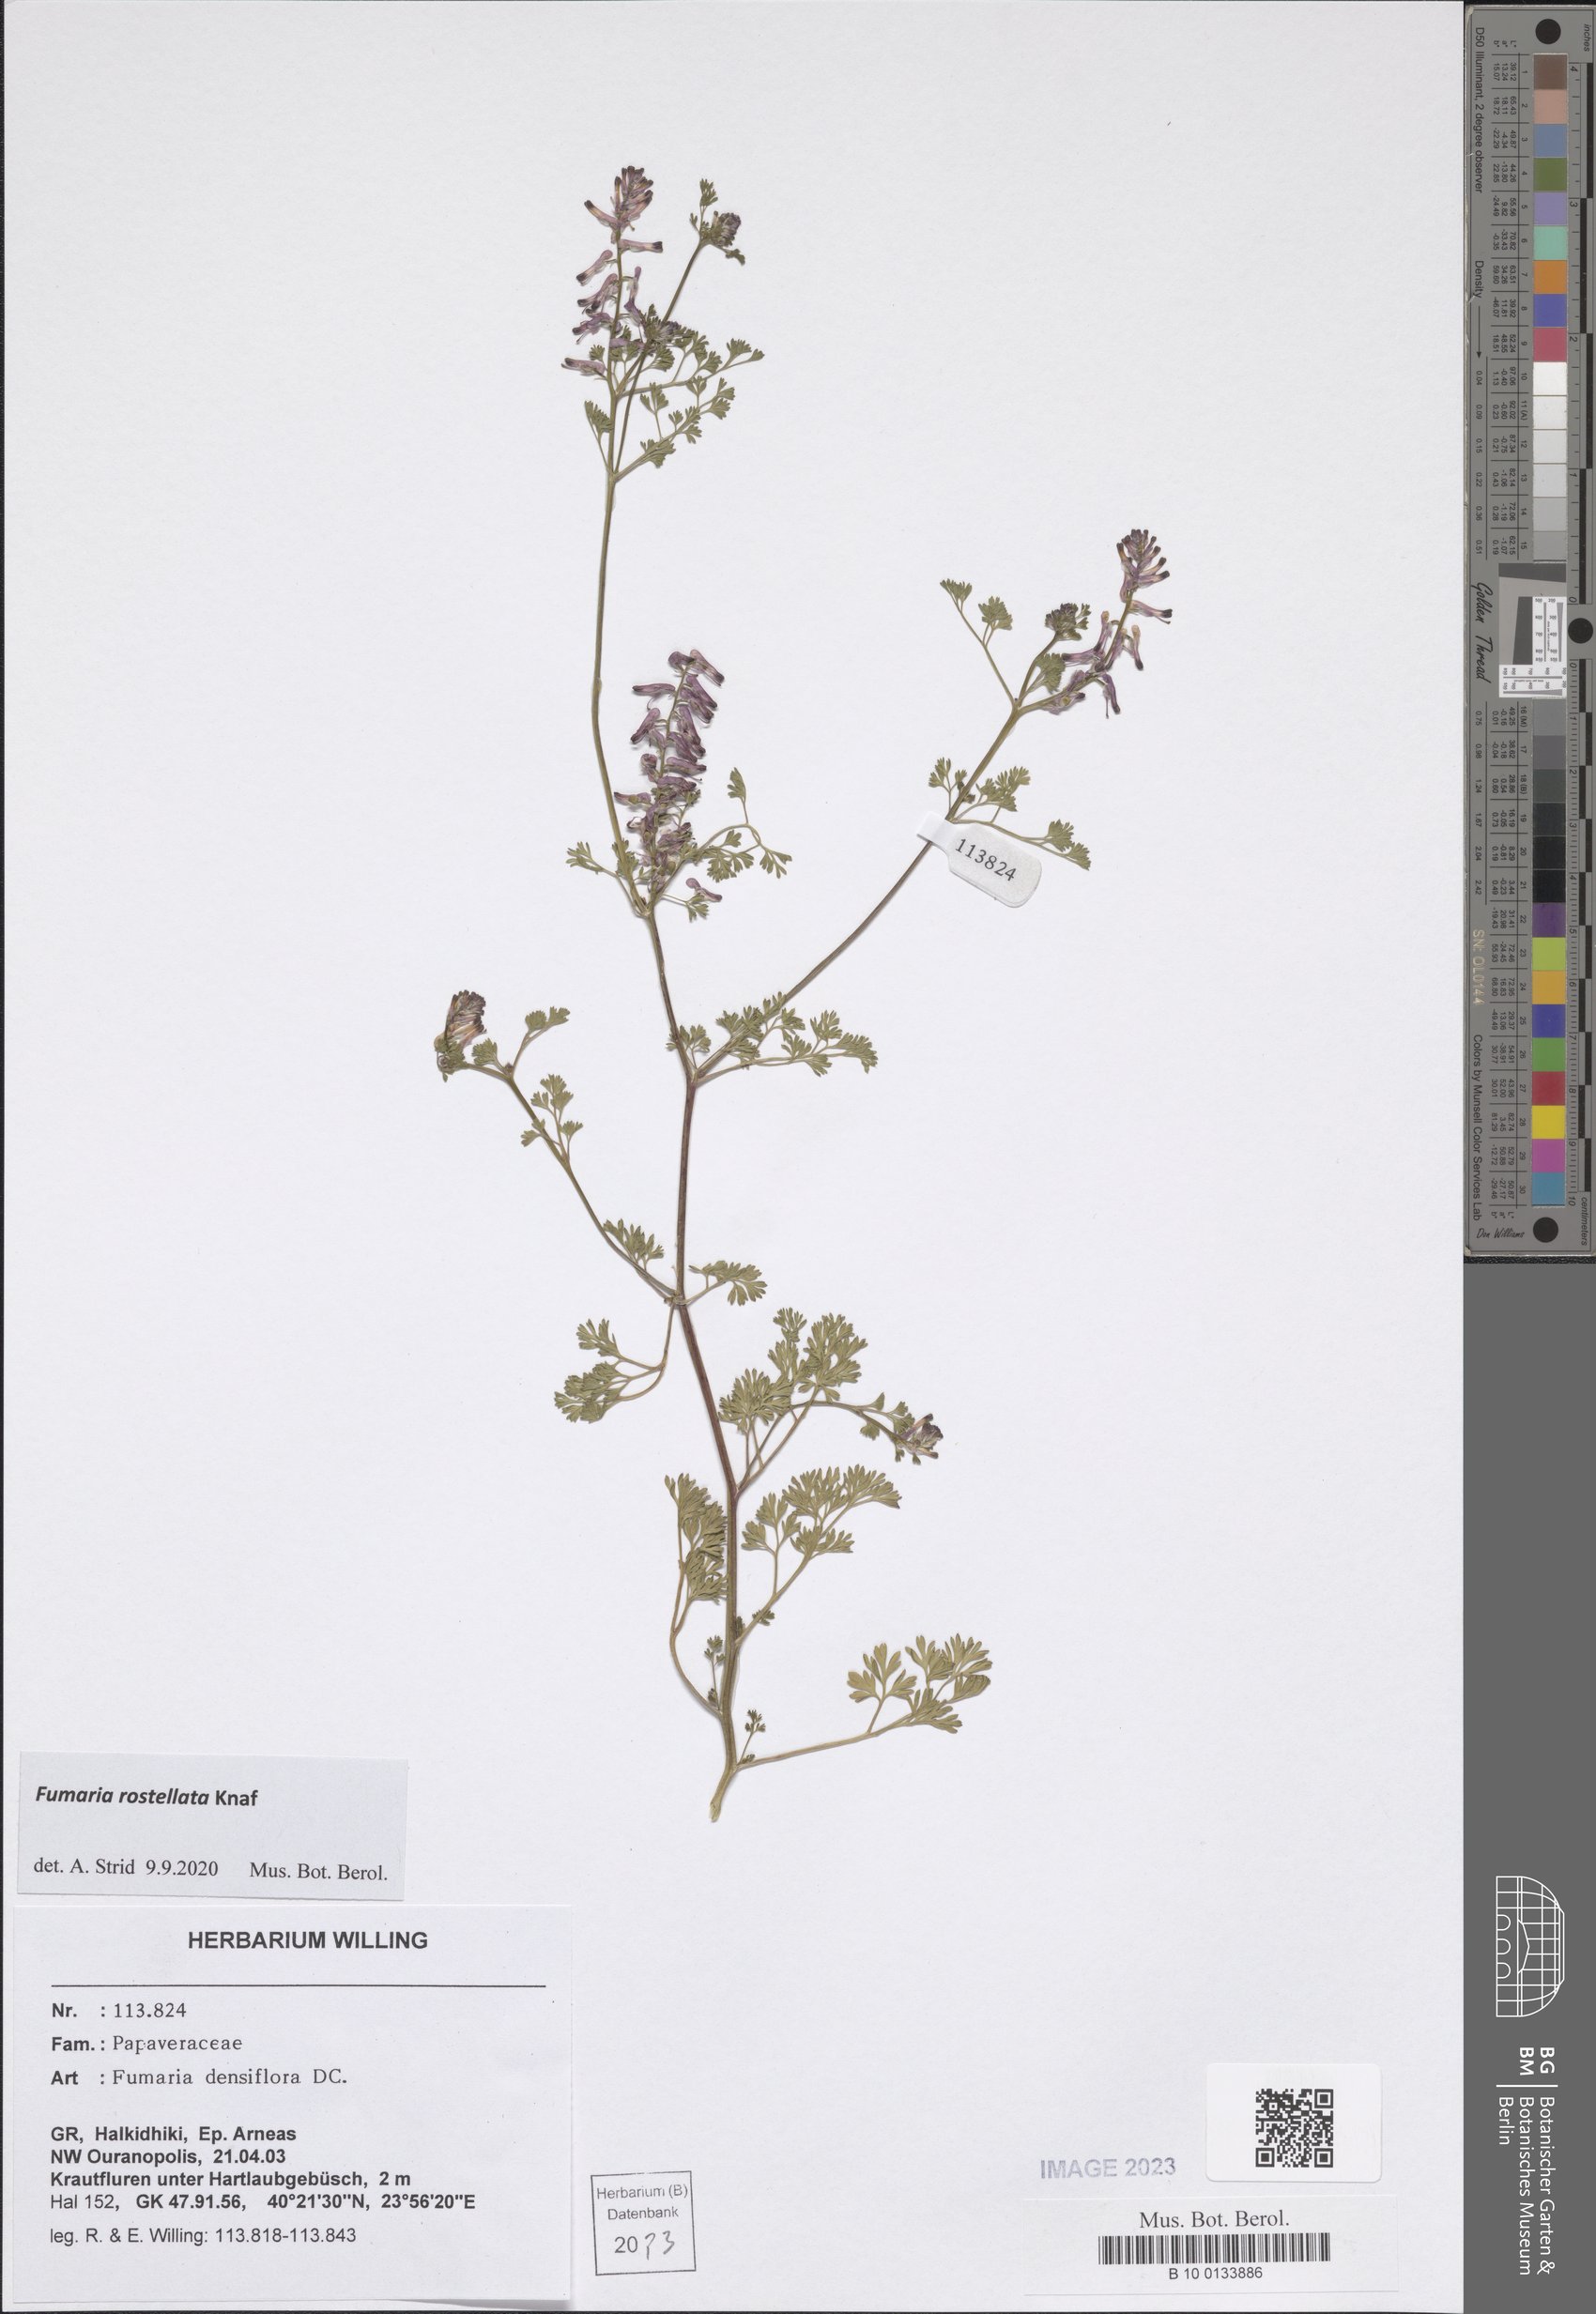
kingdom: Plantae
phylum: Tracheophyta
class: Magnoliopsida
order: Ranunculales
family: Papaveraceae
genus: Fumaria
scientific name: Fumaria rostellata
